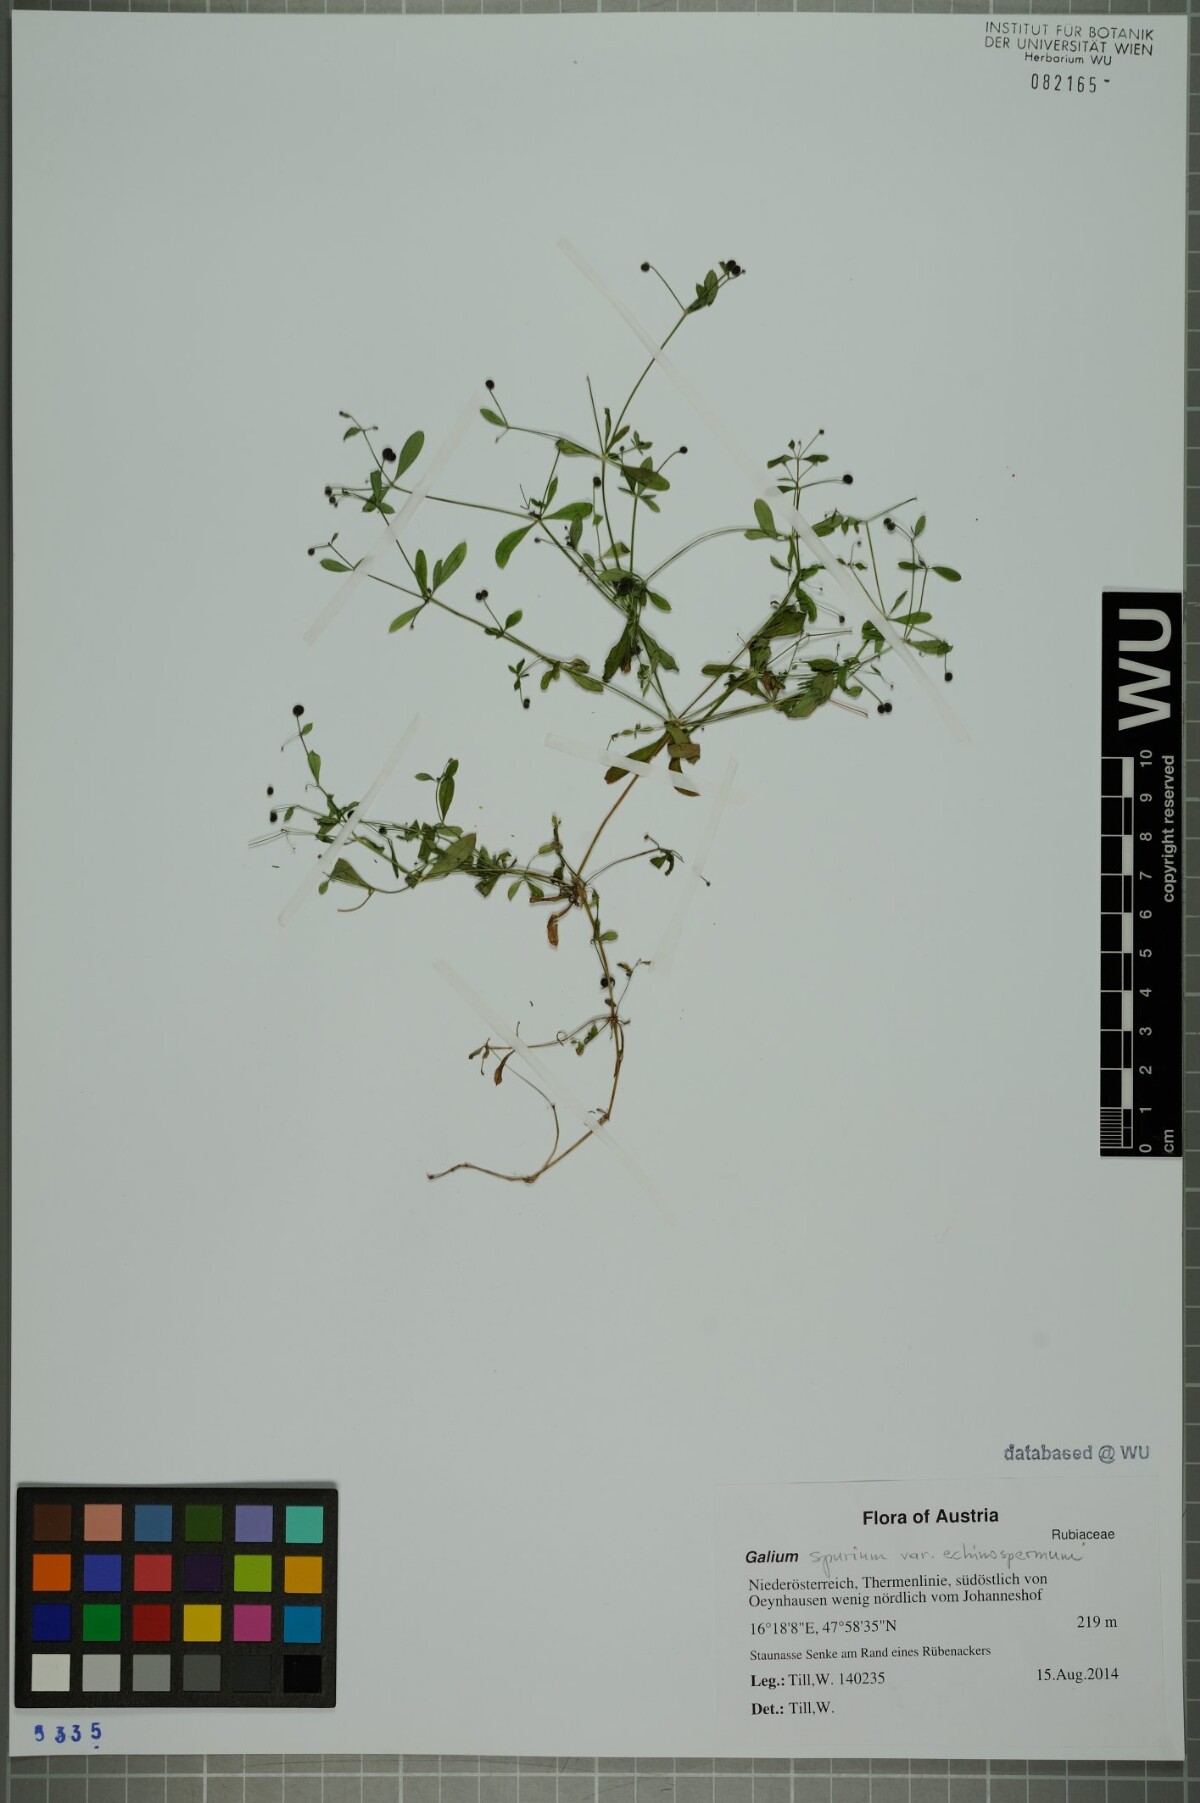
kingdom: Plantae
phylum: Tracheophyta
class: Magnoliopsida
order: Gentianales
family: Rubiaceae
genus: Galium
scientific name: Galium
